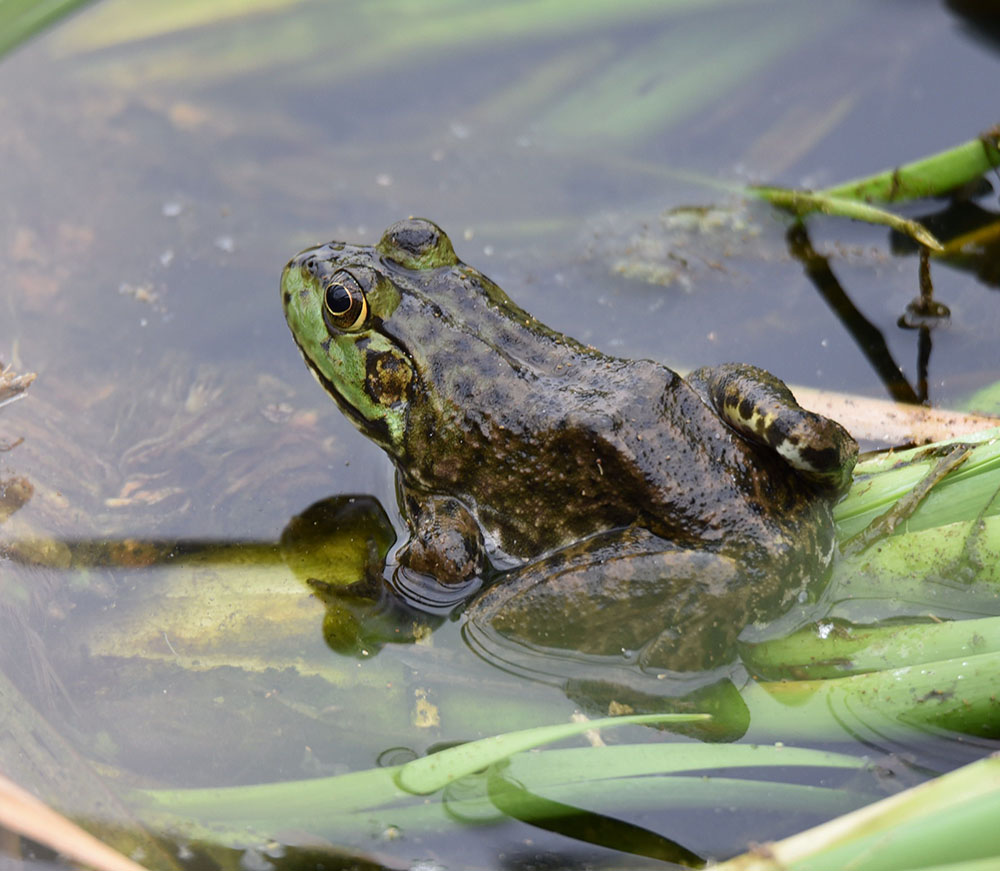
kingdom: Animalia
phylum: Chordata
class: Amphibia
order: Anura
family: Ranidae
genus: Lithobates
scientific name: Lithobates catesbeianus
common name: American bullfrog
